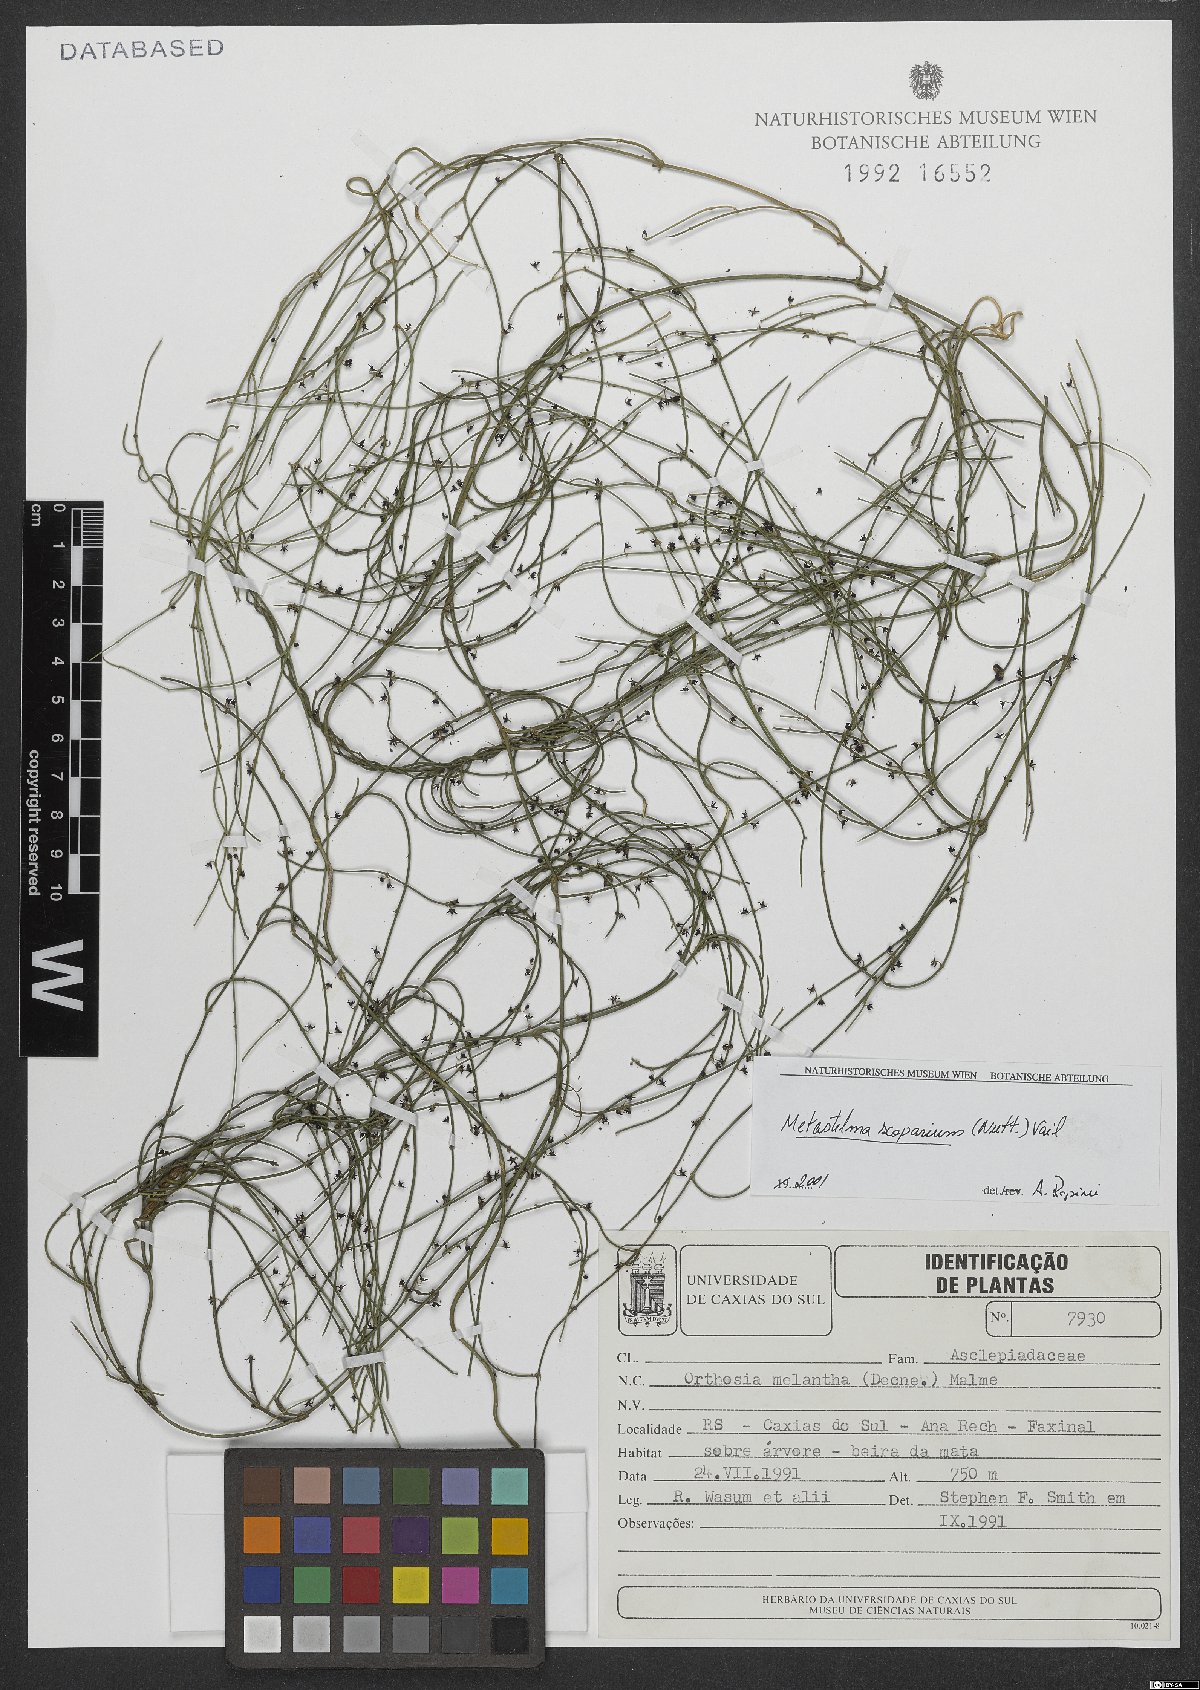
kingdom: Plantae
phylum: Tracheophyta
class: Magnoliopsida
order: Gentianales
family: Apocynaceae
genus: Orthosia
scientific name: Orthosia scoparia
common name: Leafless swallow-wort
